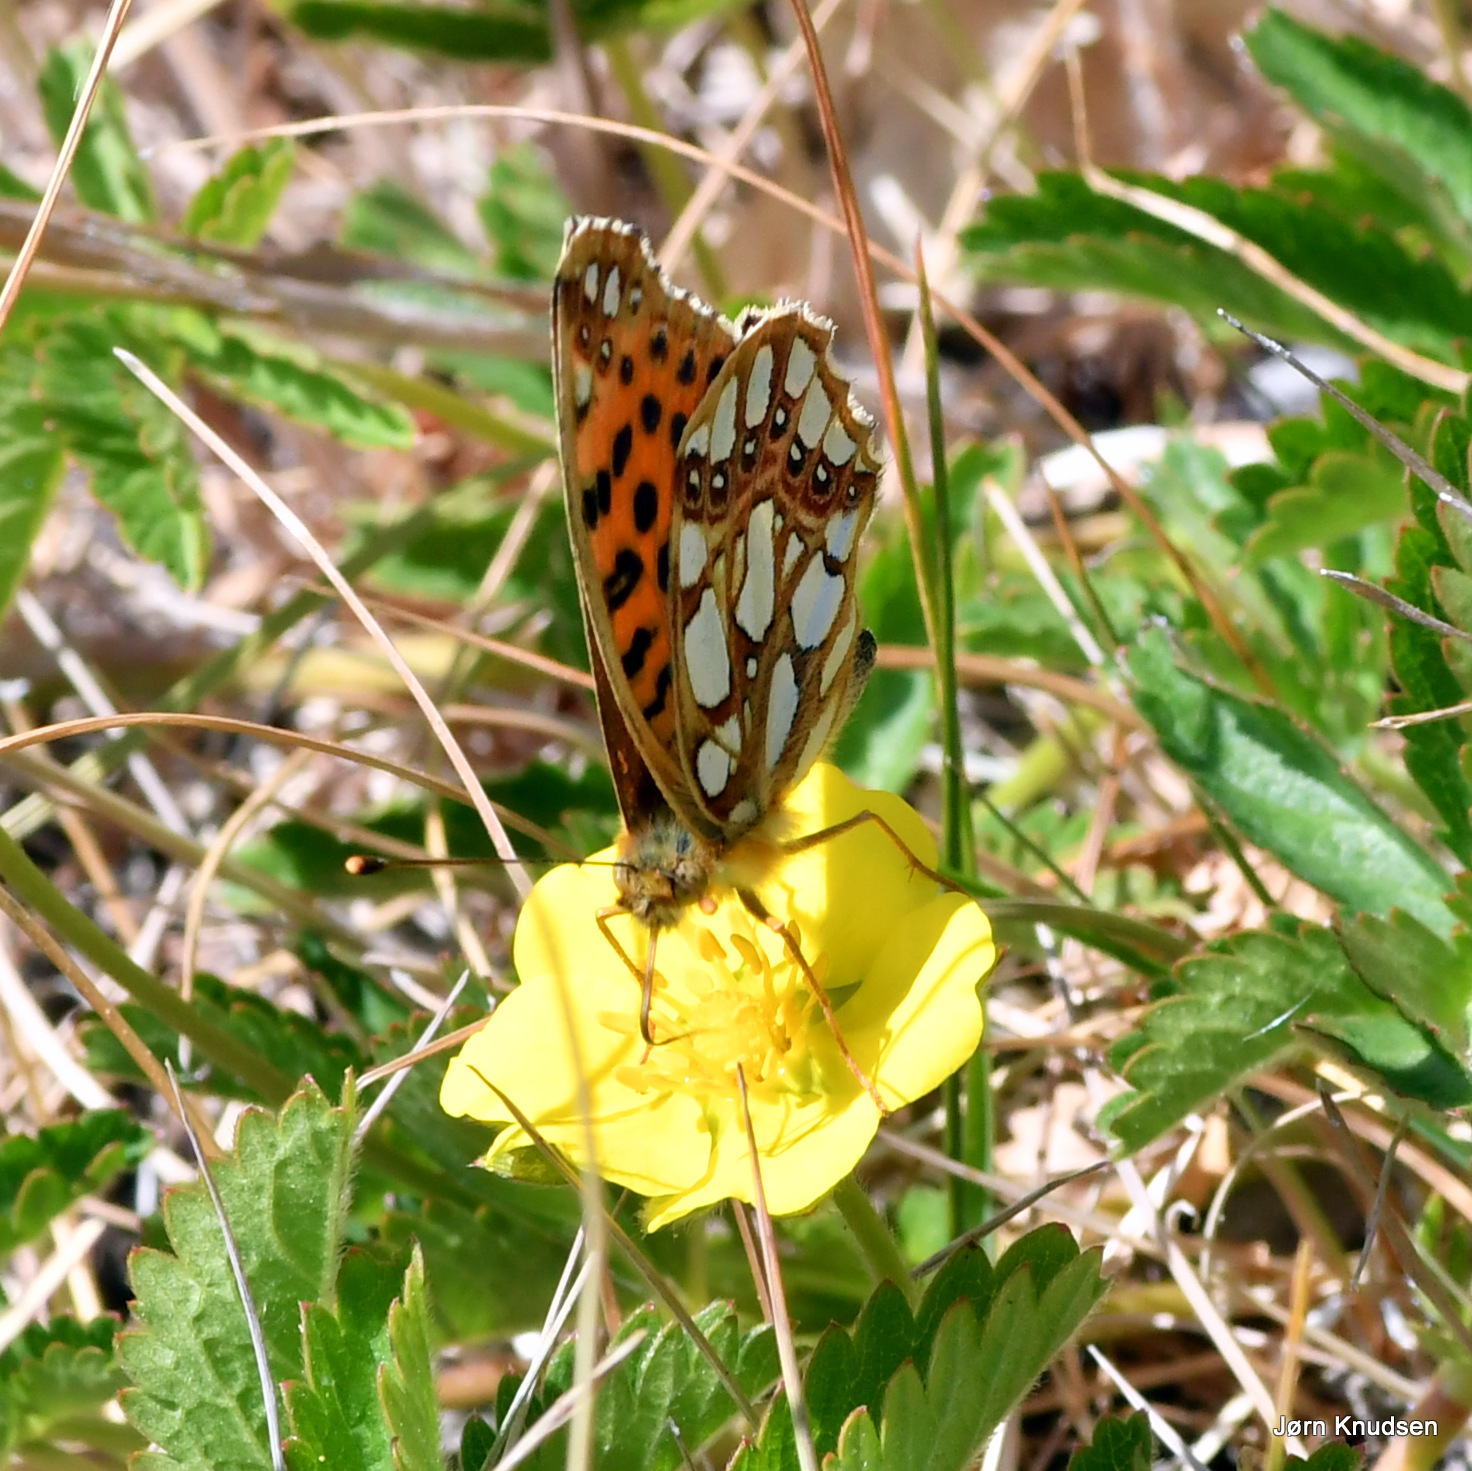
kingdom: Animalia
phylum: Arthropoda
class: Insecta
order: Lepidoptera
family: Nymphalidae
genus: Issoria
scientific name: Issoria lathonia
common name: Storplettet perlemorsommerfugl
